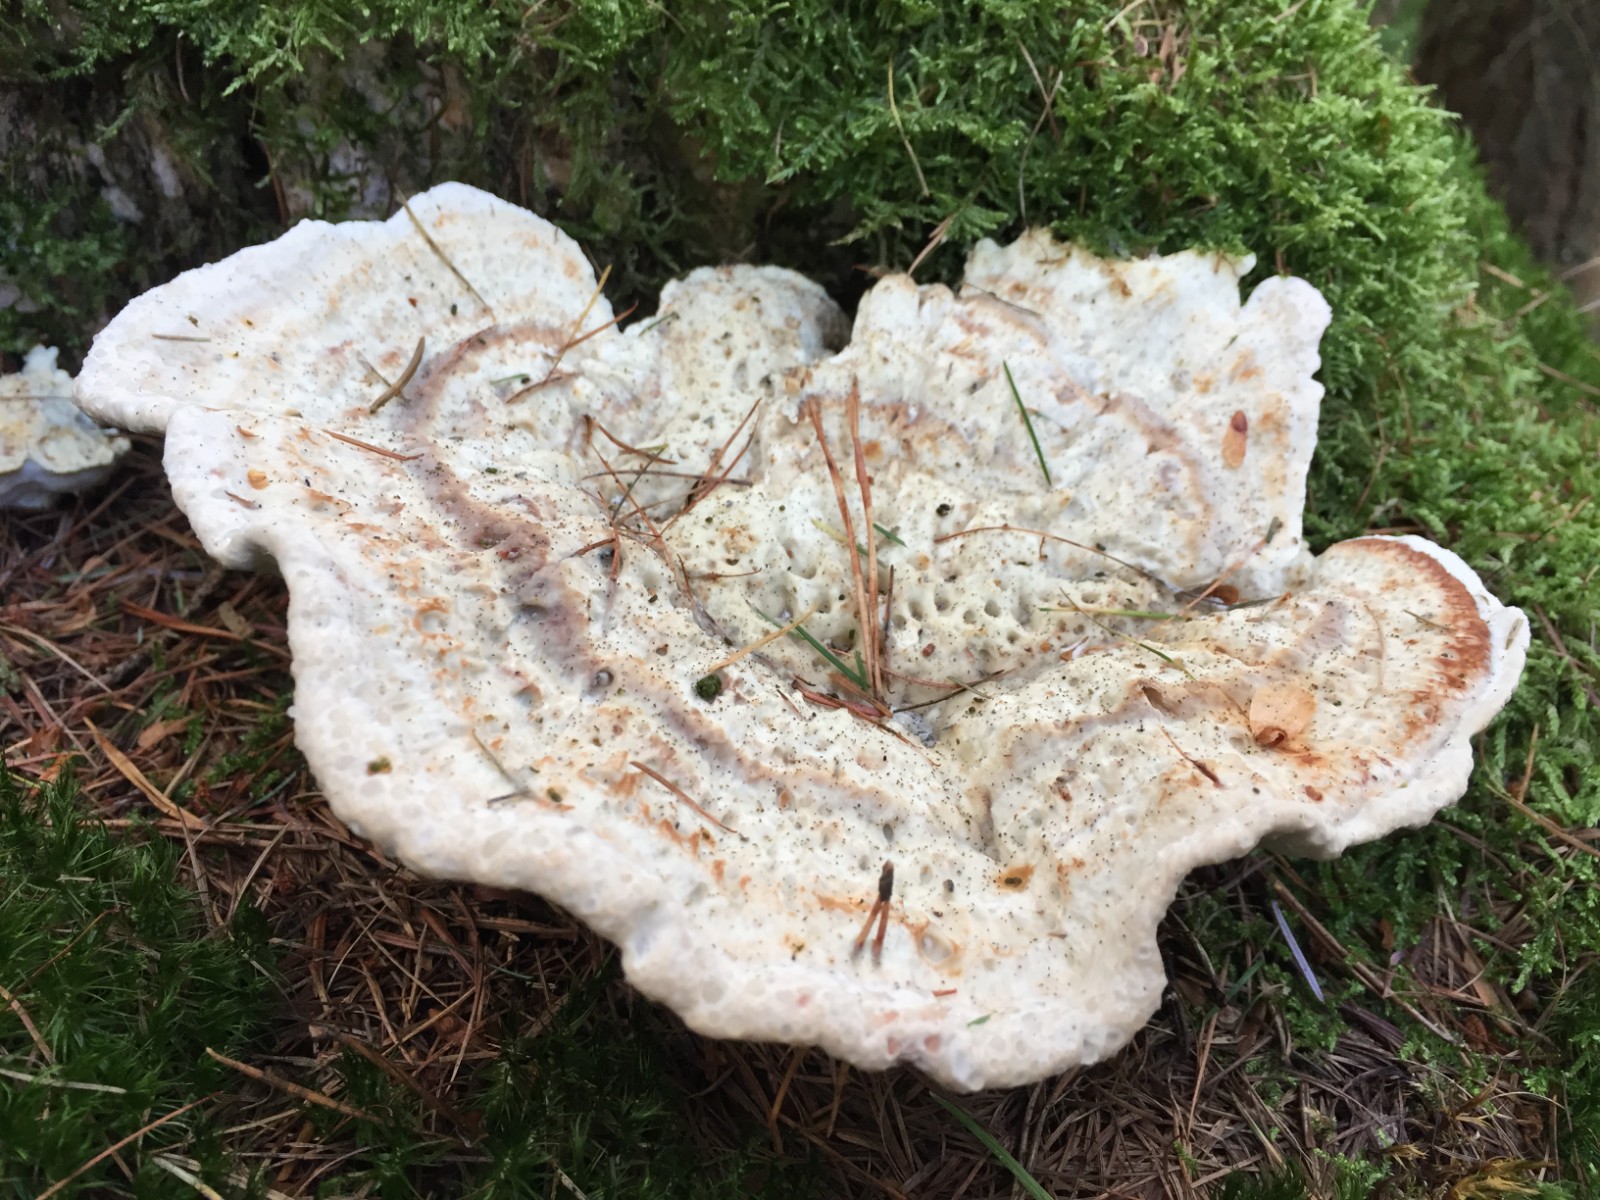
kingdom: Fungi
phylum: Basidiomycota
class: Agaricomycetes
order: Polyporales
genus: Calcipostia
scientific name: Calcipostia guttulata
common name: dråbe-kødporesvamp
